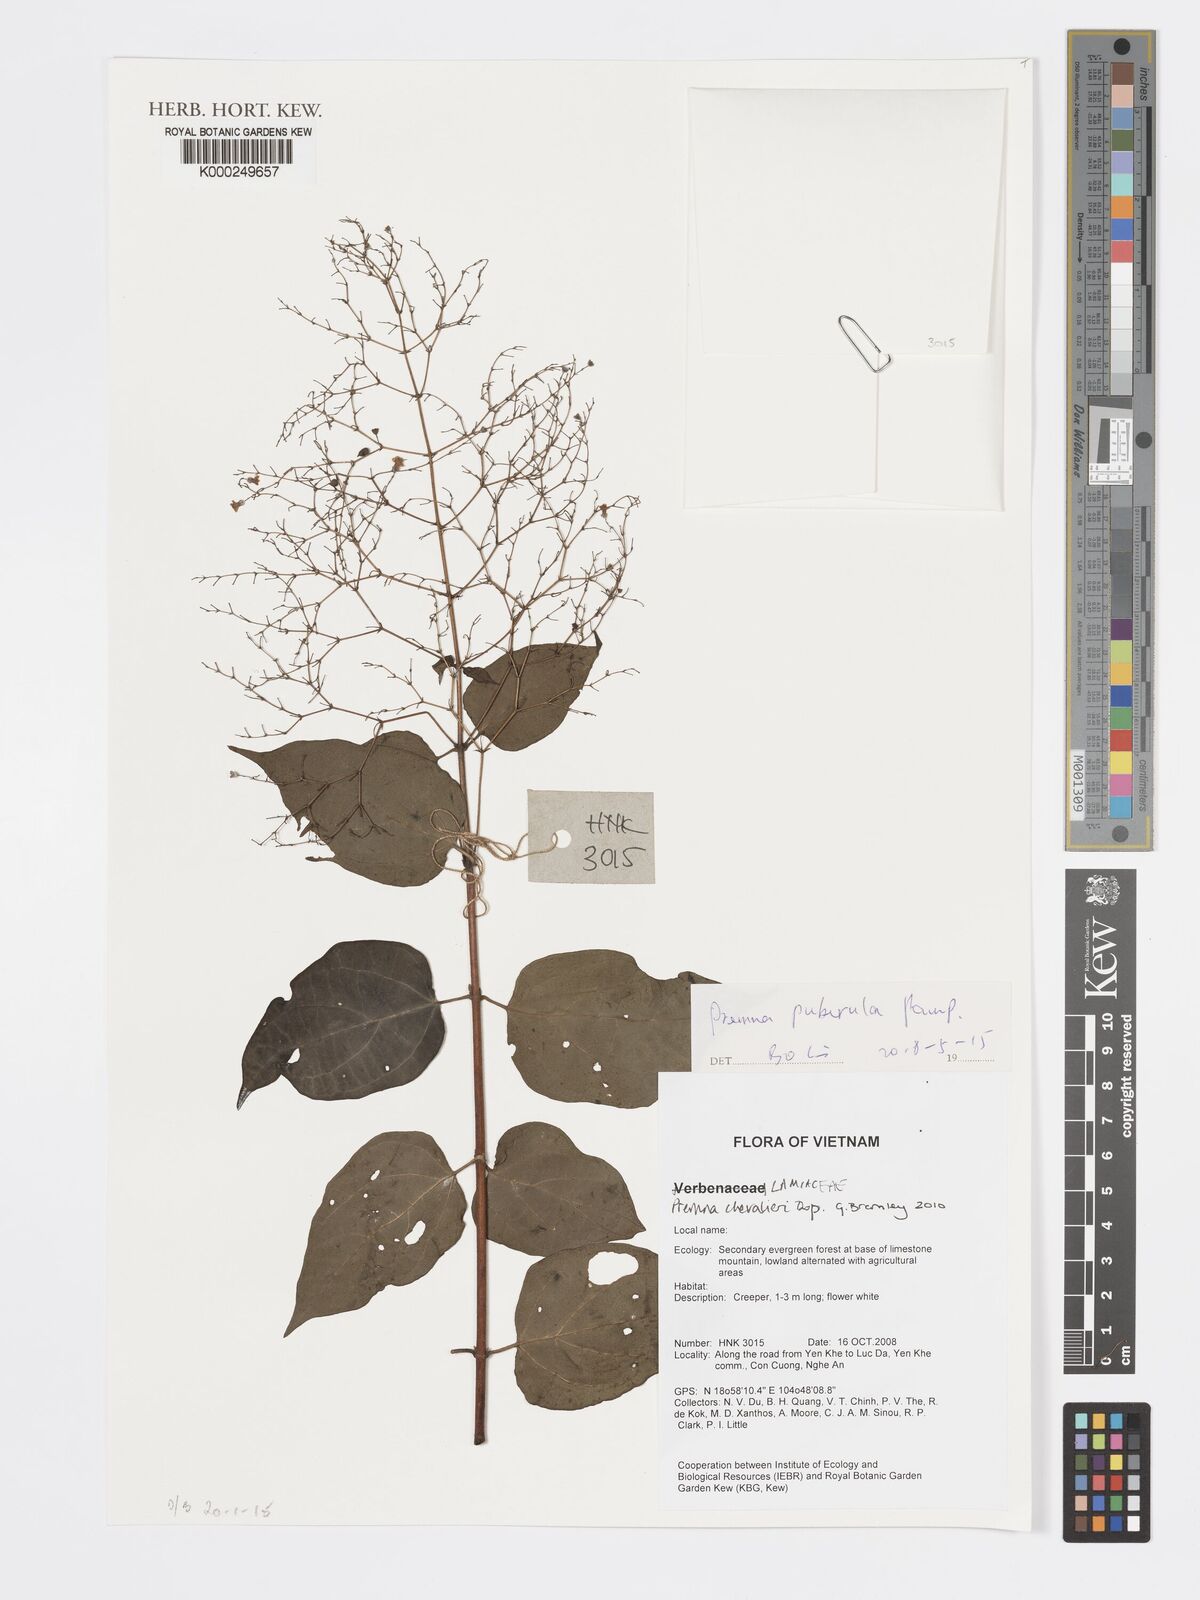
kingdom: Plantae
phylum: Tracheophyta
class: Magnoliopsida
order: Lamiales
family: Lamiaceae
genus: Premna
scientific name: Premna chevalieri
